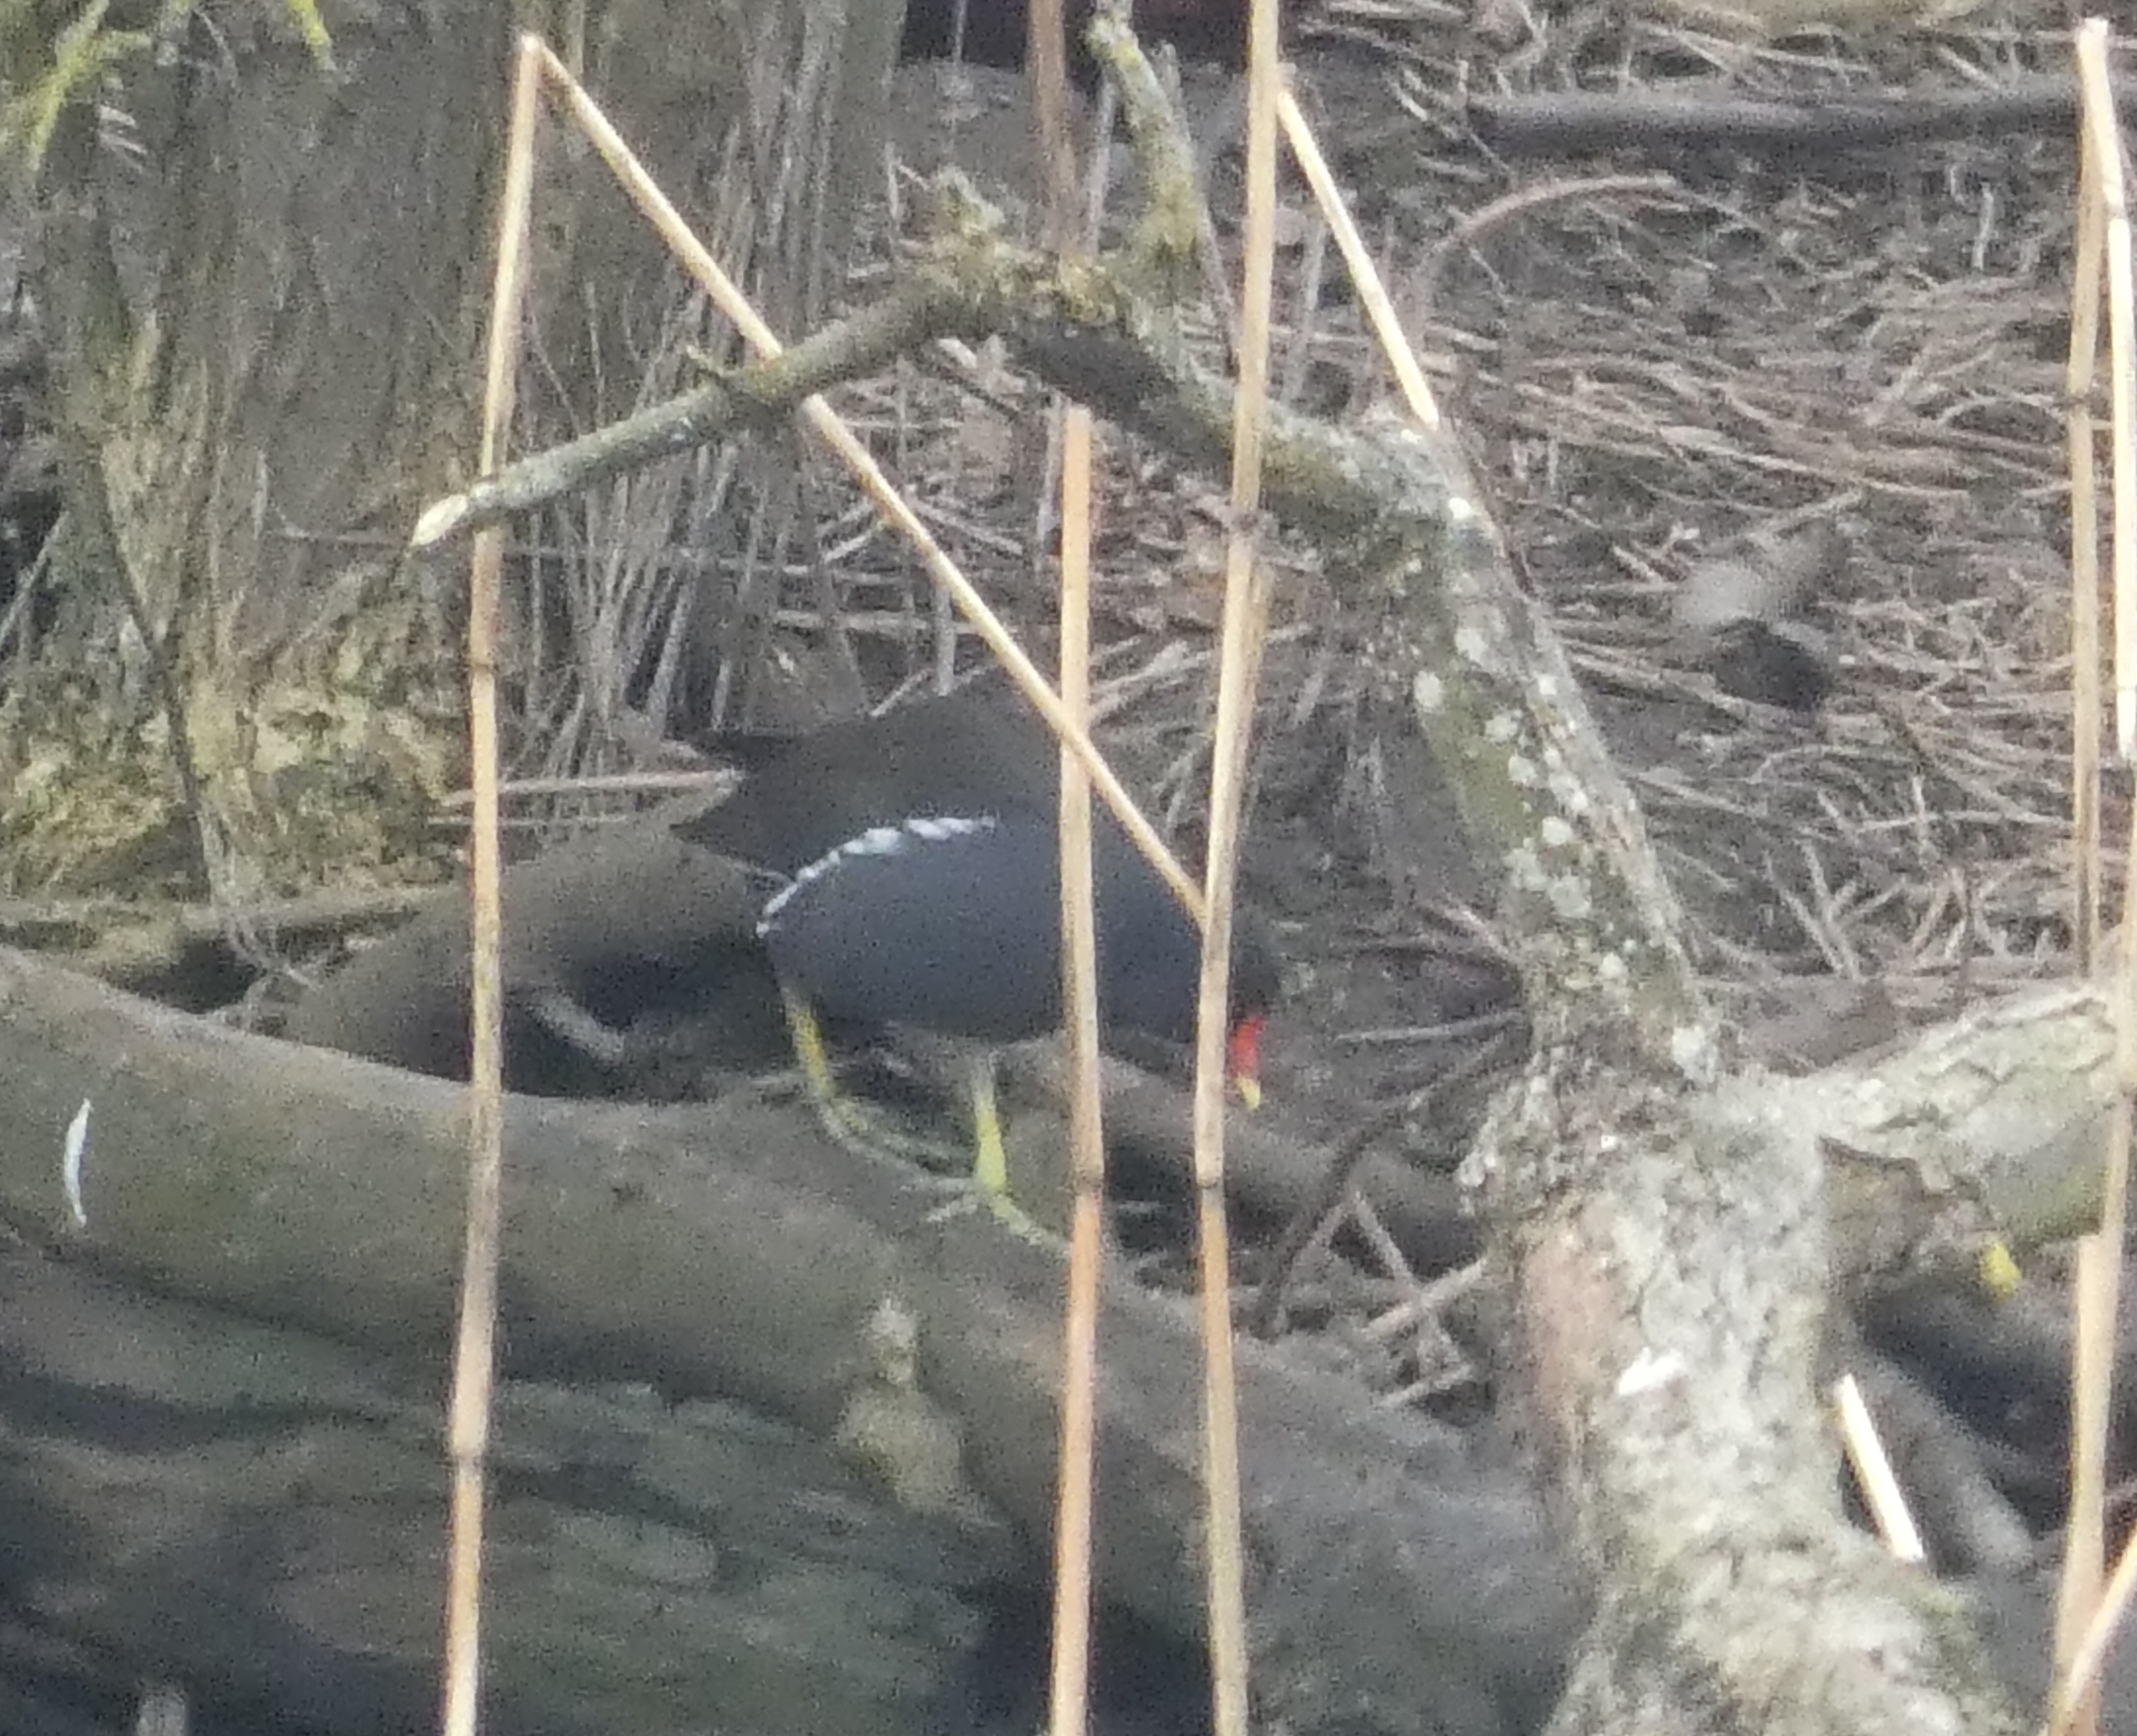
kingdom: Animalia
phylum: Chordata
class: Aves
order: Gruiformes
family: Rallidae
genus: Gallinula
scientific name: Gallinula chloropus
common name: Grønbenet rørhøne
